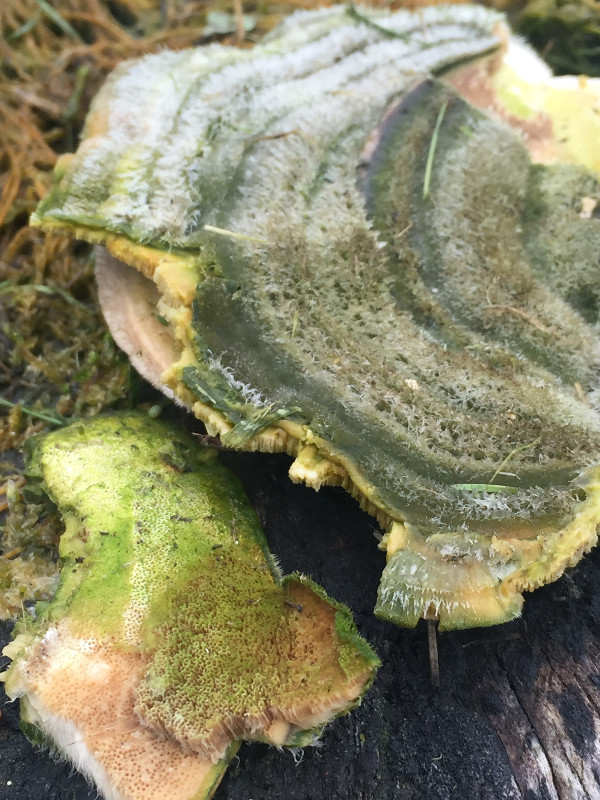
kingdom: Fungi
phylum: Basidiomycota
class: Agaricomycetes
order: Polyporales
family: Polyporaceae
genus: Trametes
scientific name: Trametes hirsuta
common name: håret læderporesvamp
